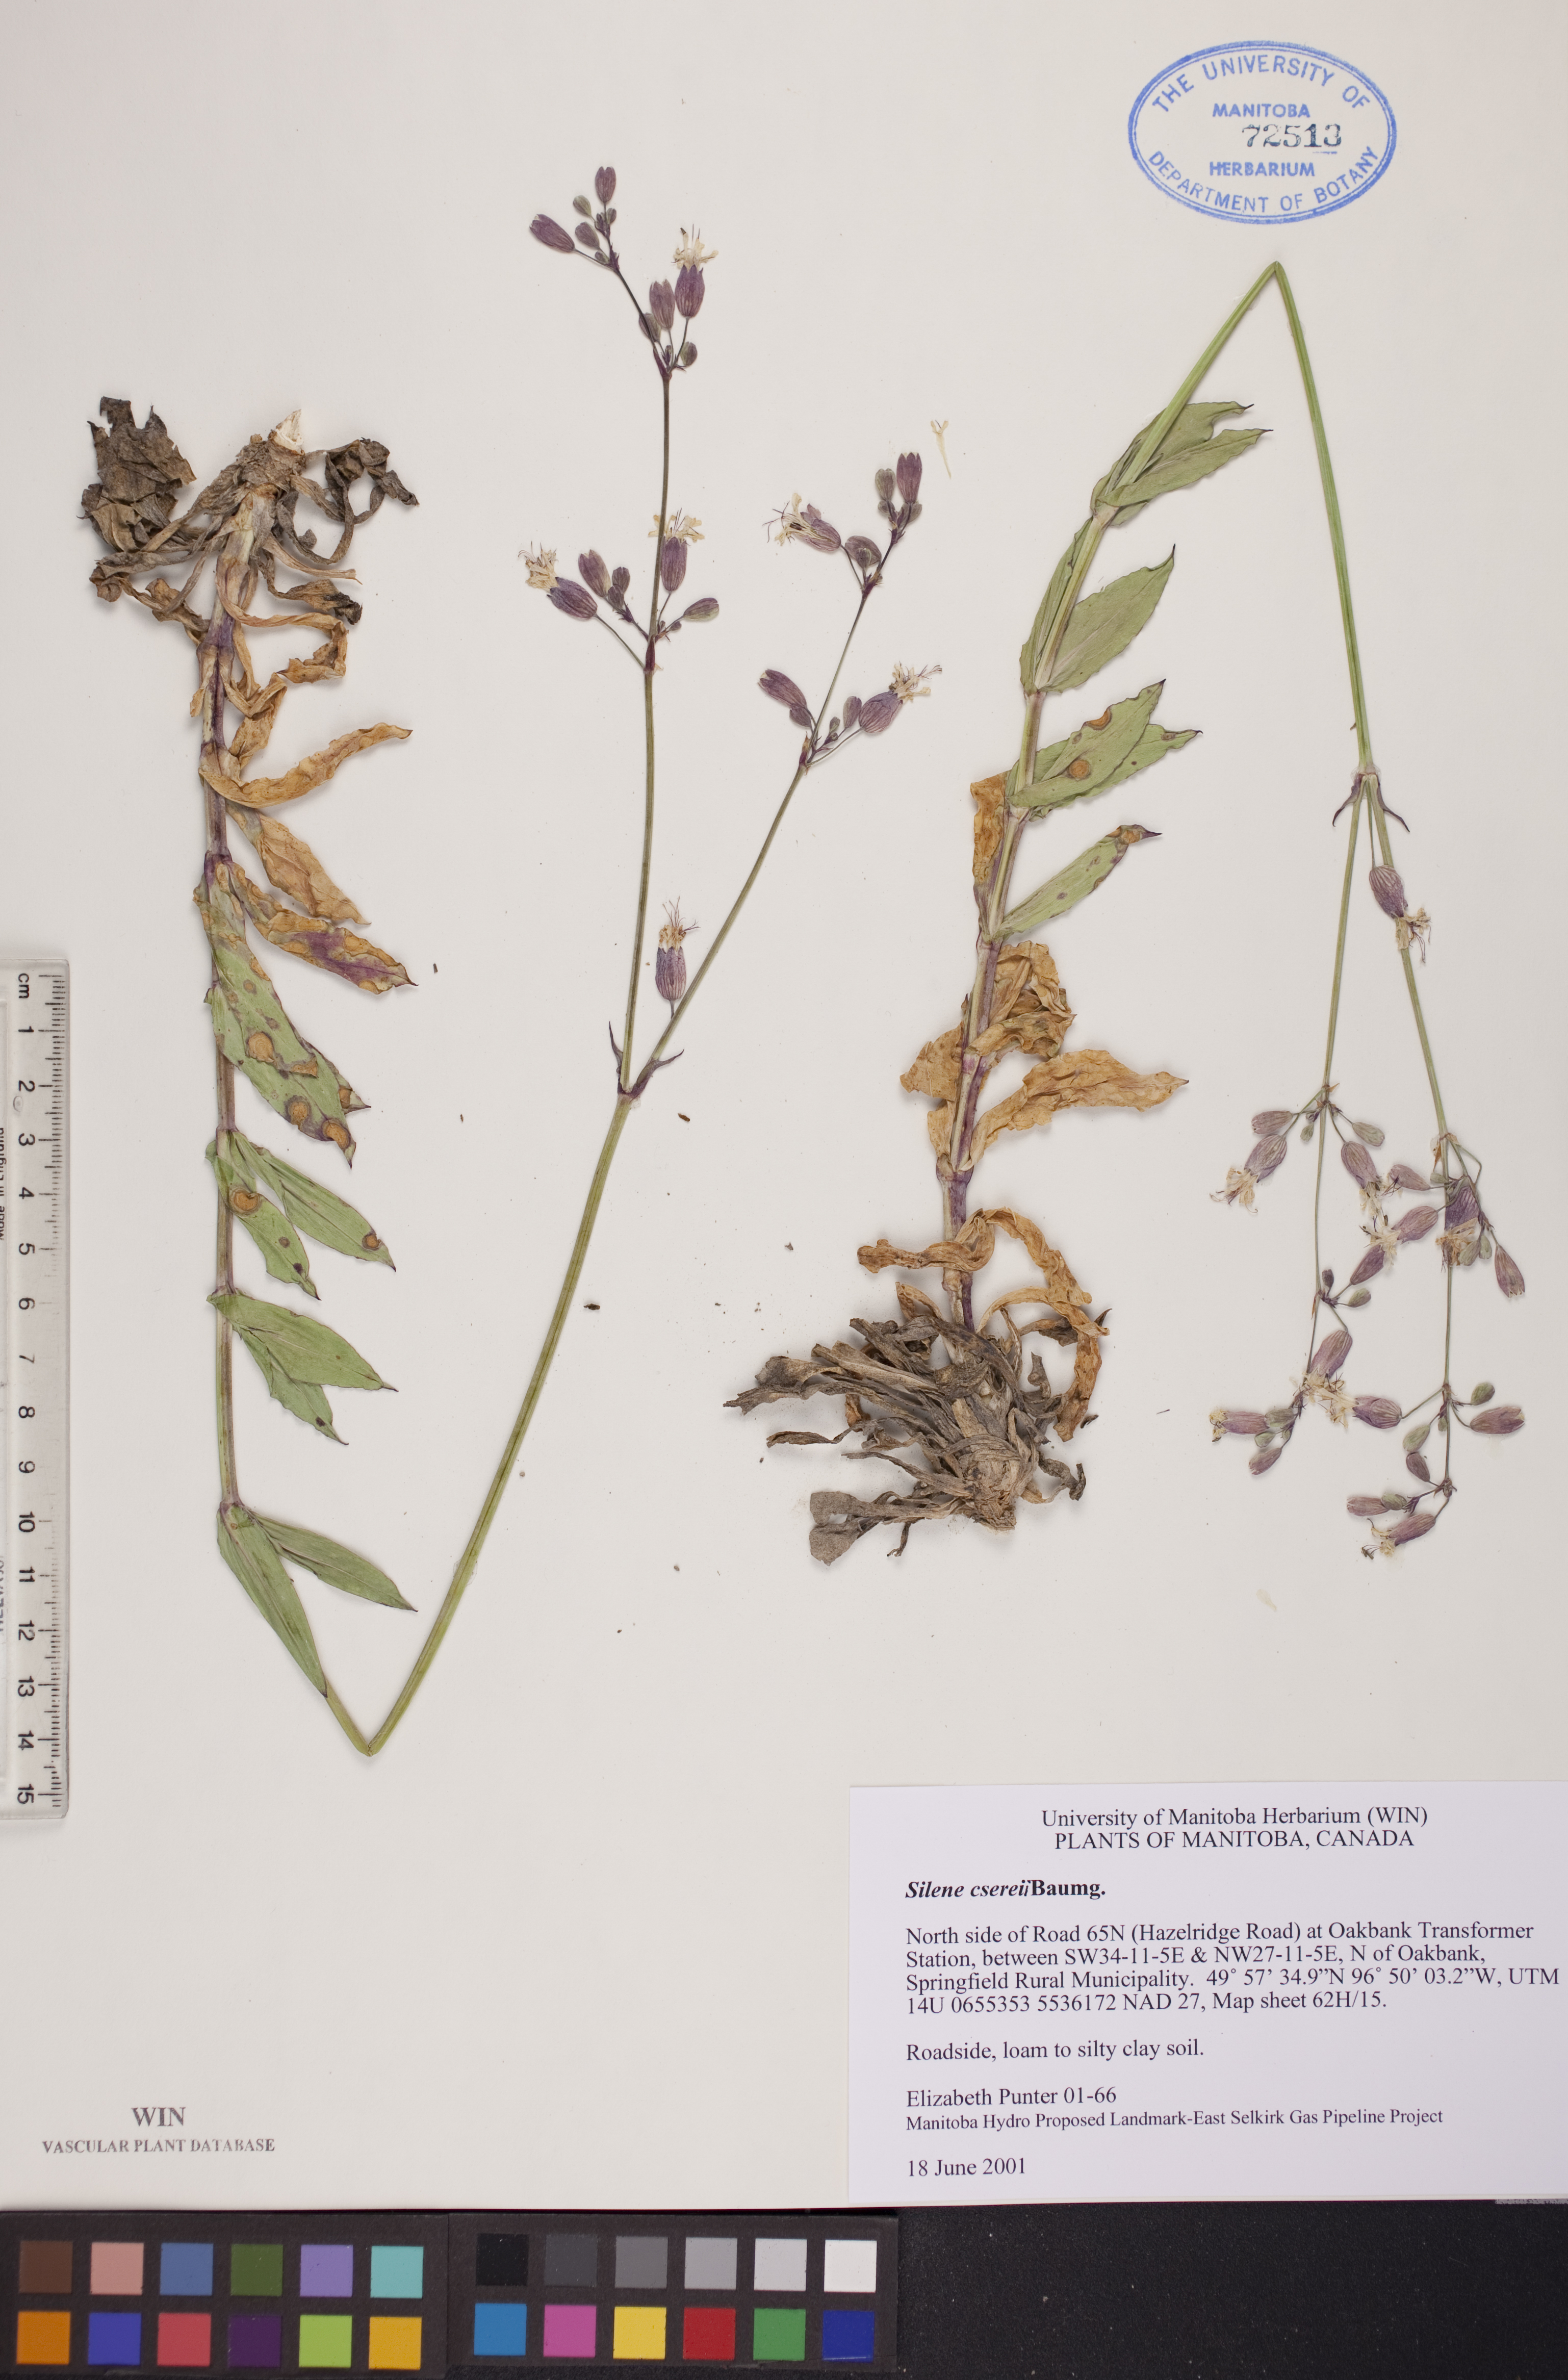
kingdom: Plantae
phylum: Tracheophyta
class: Magnoliopsida
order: Caryophyllales
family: Caryophyllaceae
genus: Silene
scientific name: Silene csereii
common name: Balkan catchfly
